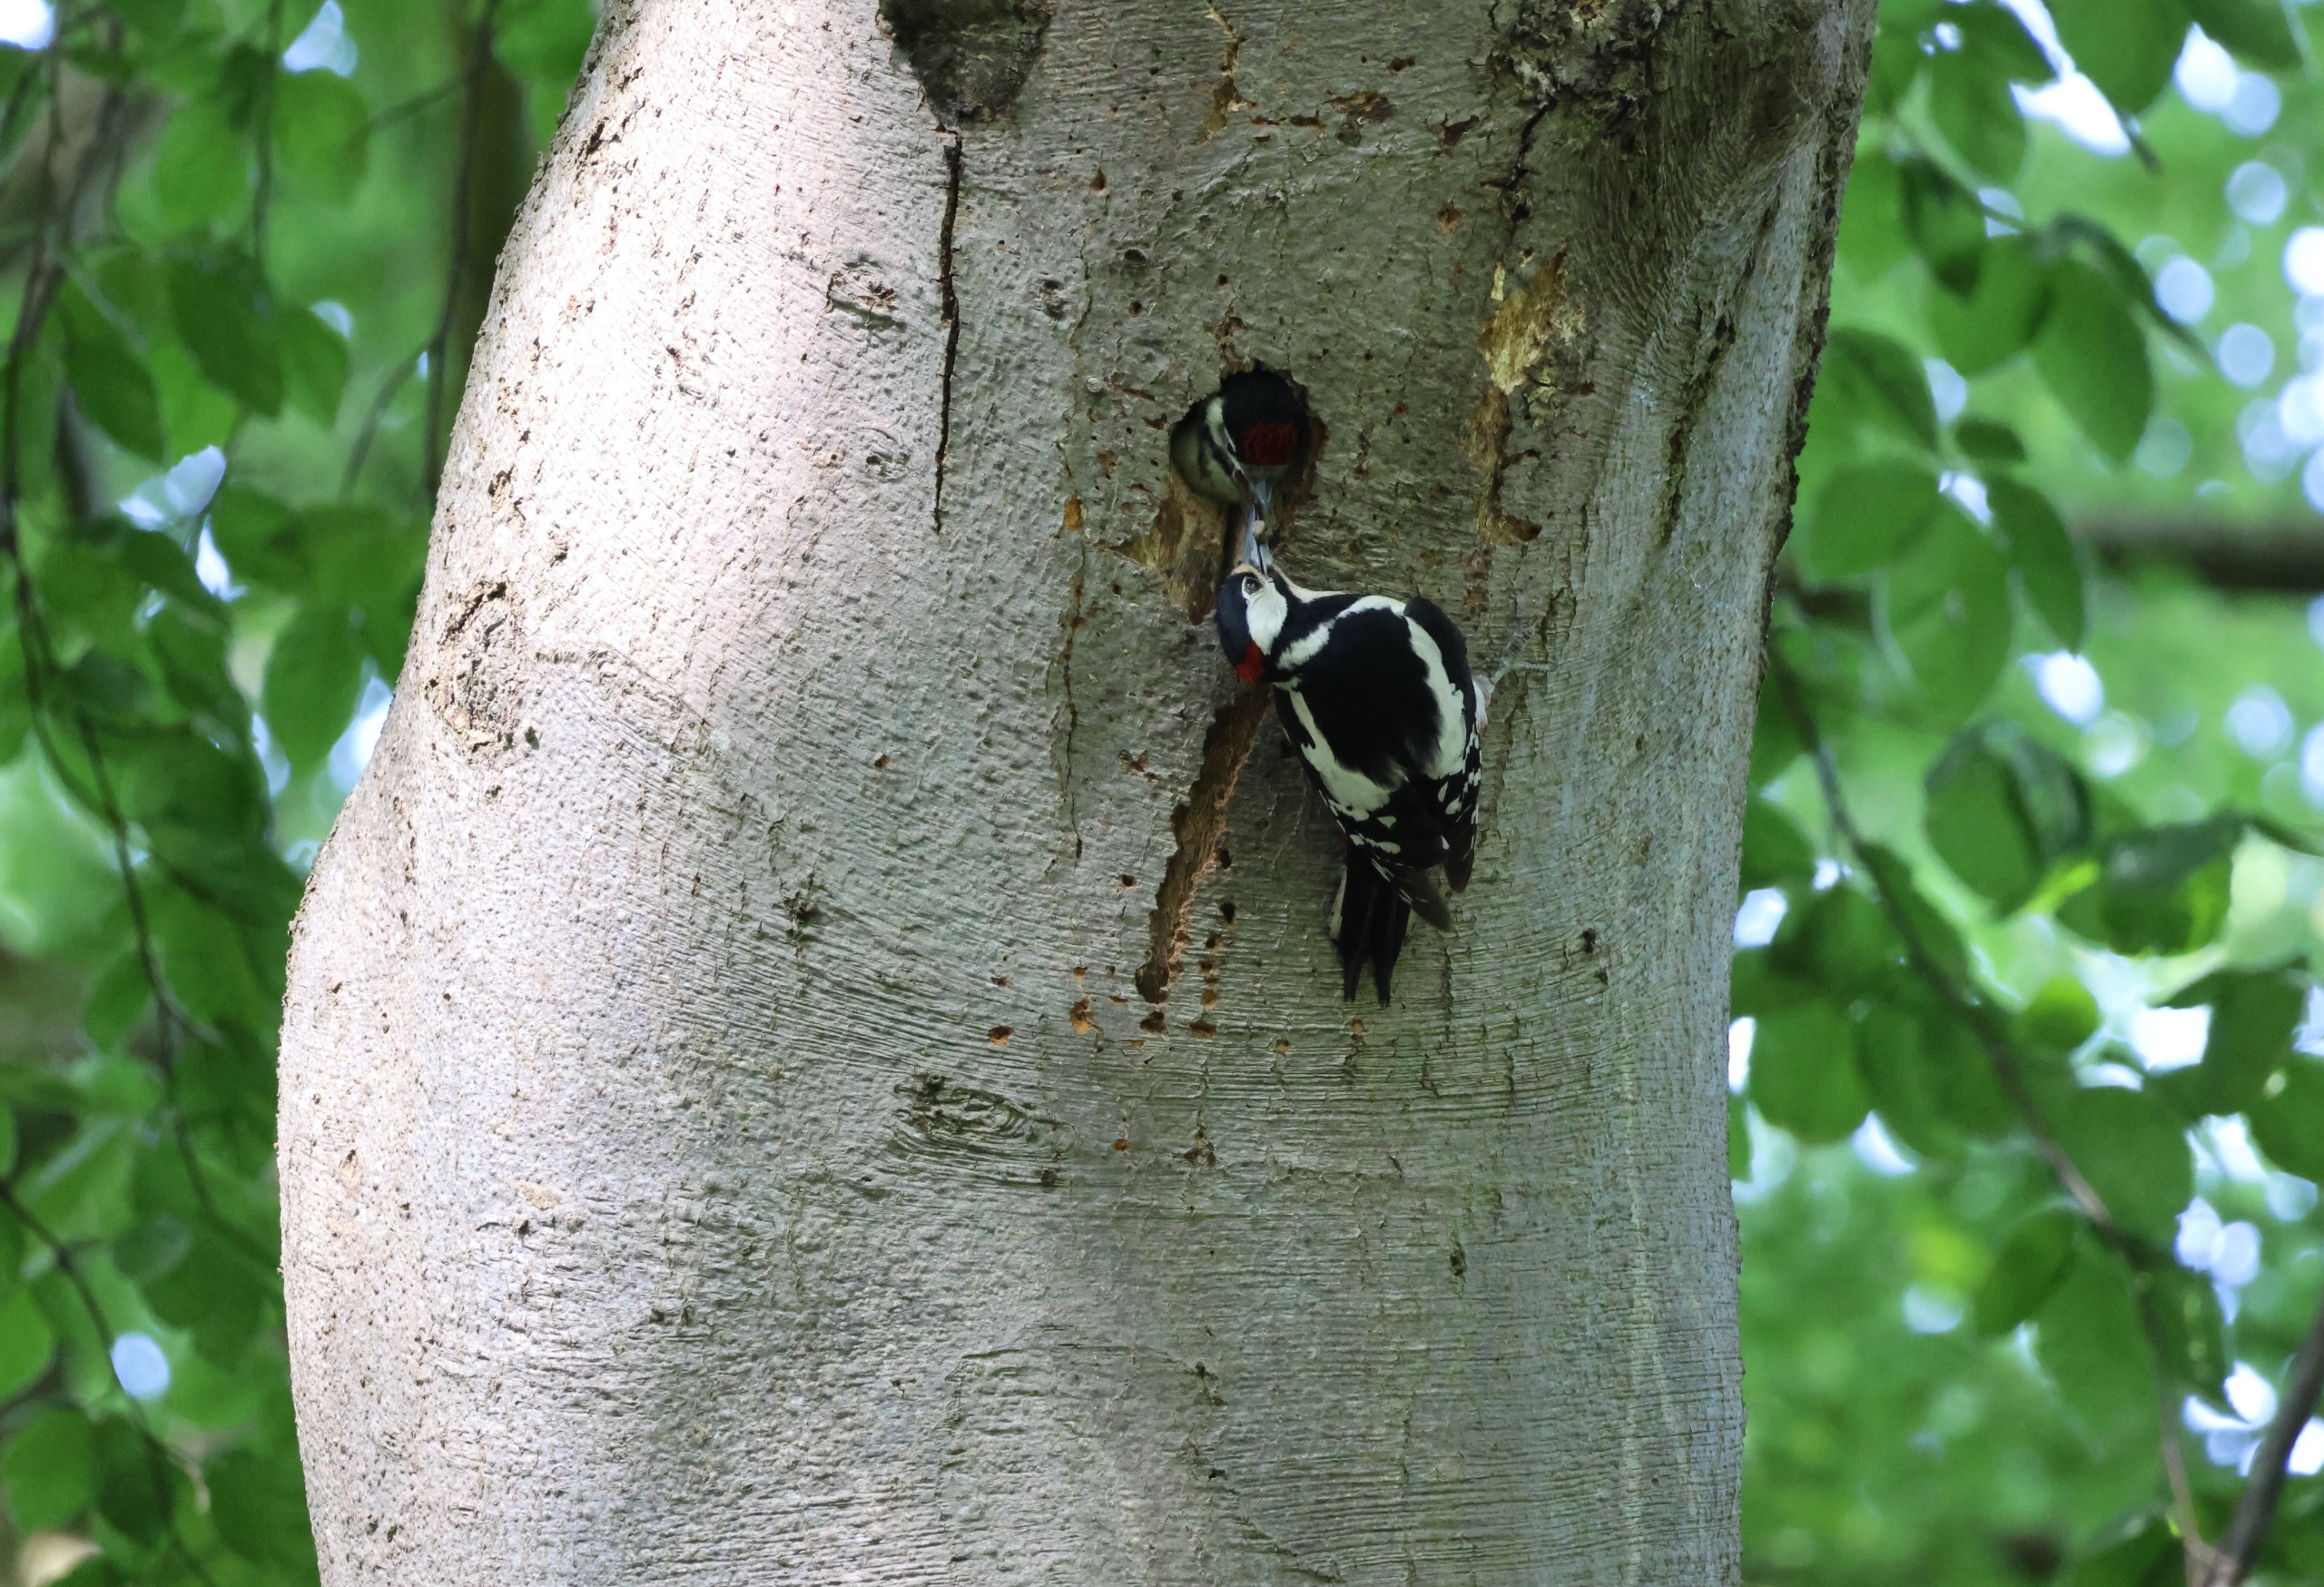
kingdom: Animalia
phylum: Chordata
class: Aves
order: Piciformes
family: Picidae
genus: Dendrocopos
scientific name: Dendrocopos major
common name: Stor flagspætte
